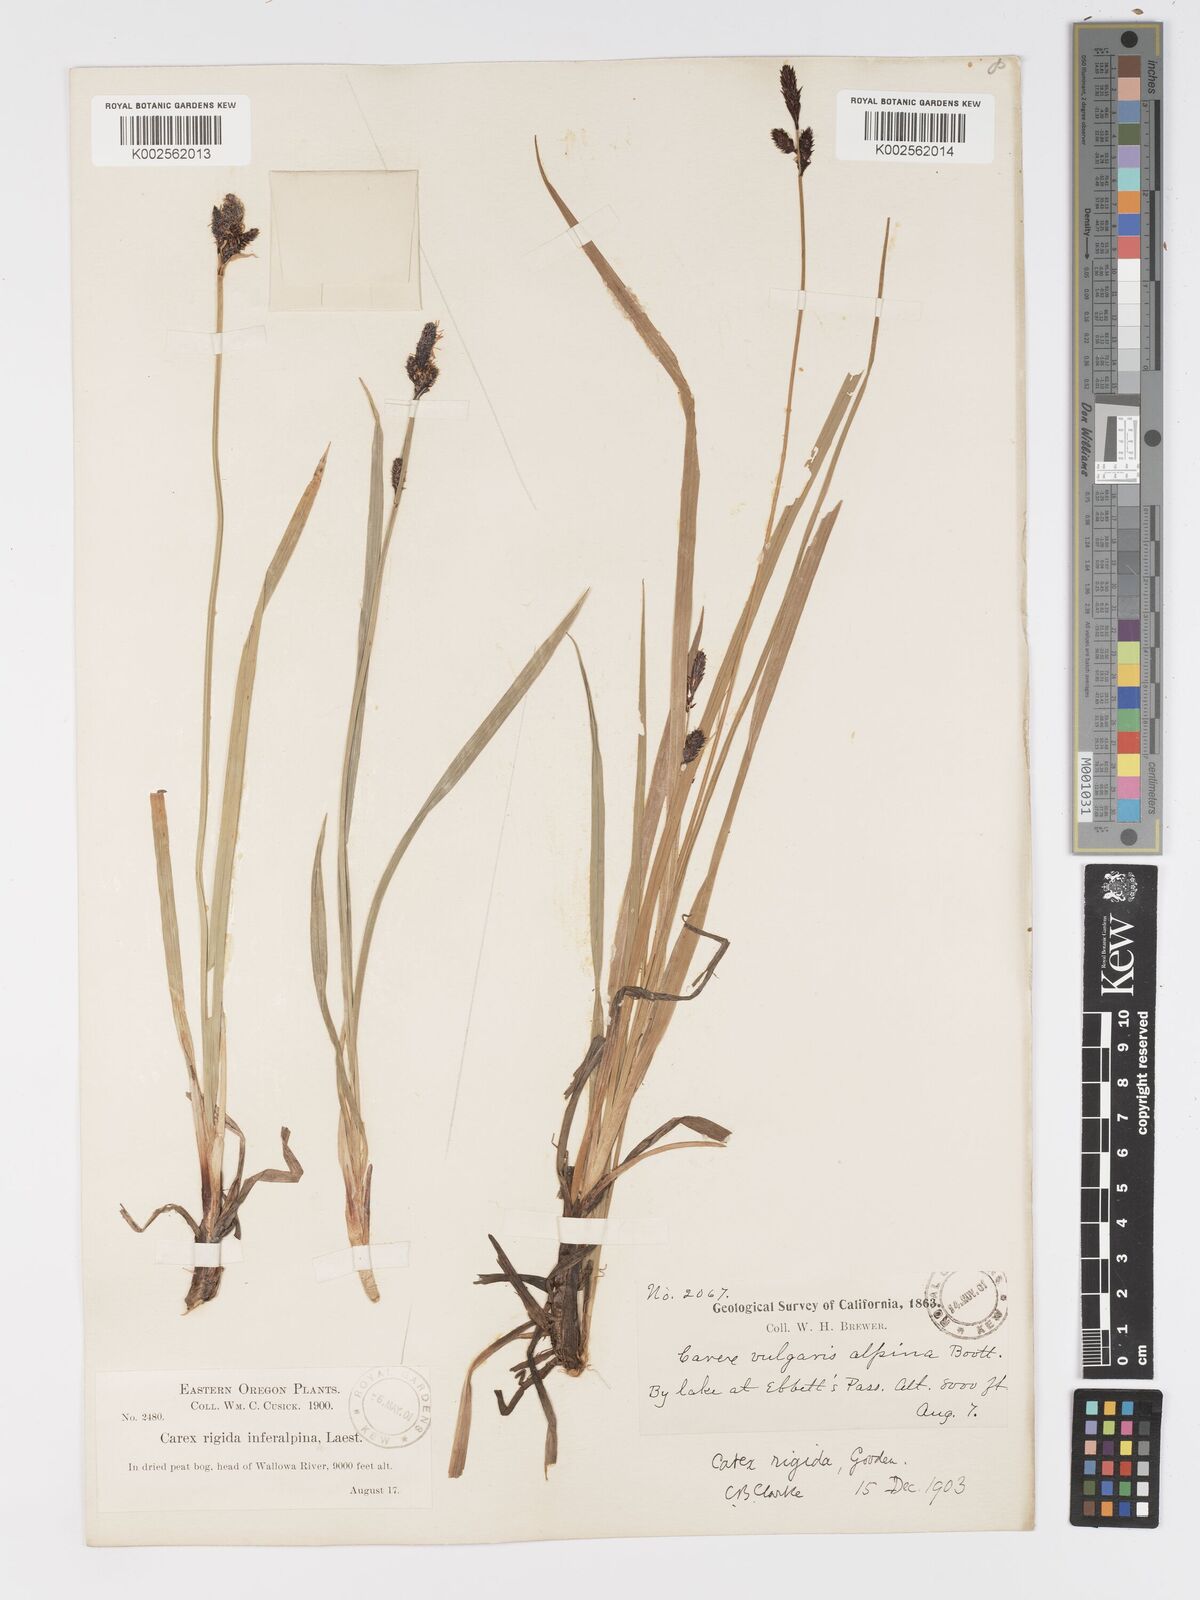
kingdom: Plantae
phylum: Tracheophyta
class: Liliopsida
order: Poales
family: Cyperaceae
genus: Carex
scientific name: Carex bigelowii
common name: Stiff sedge
